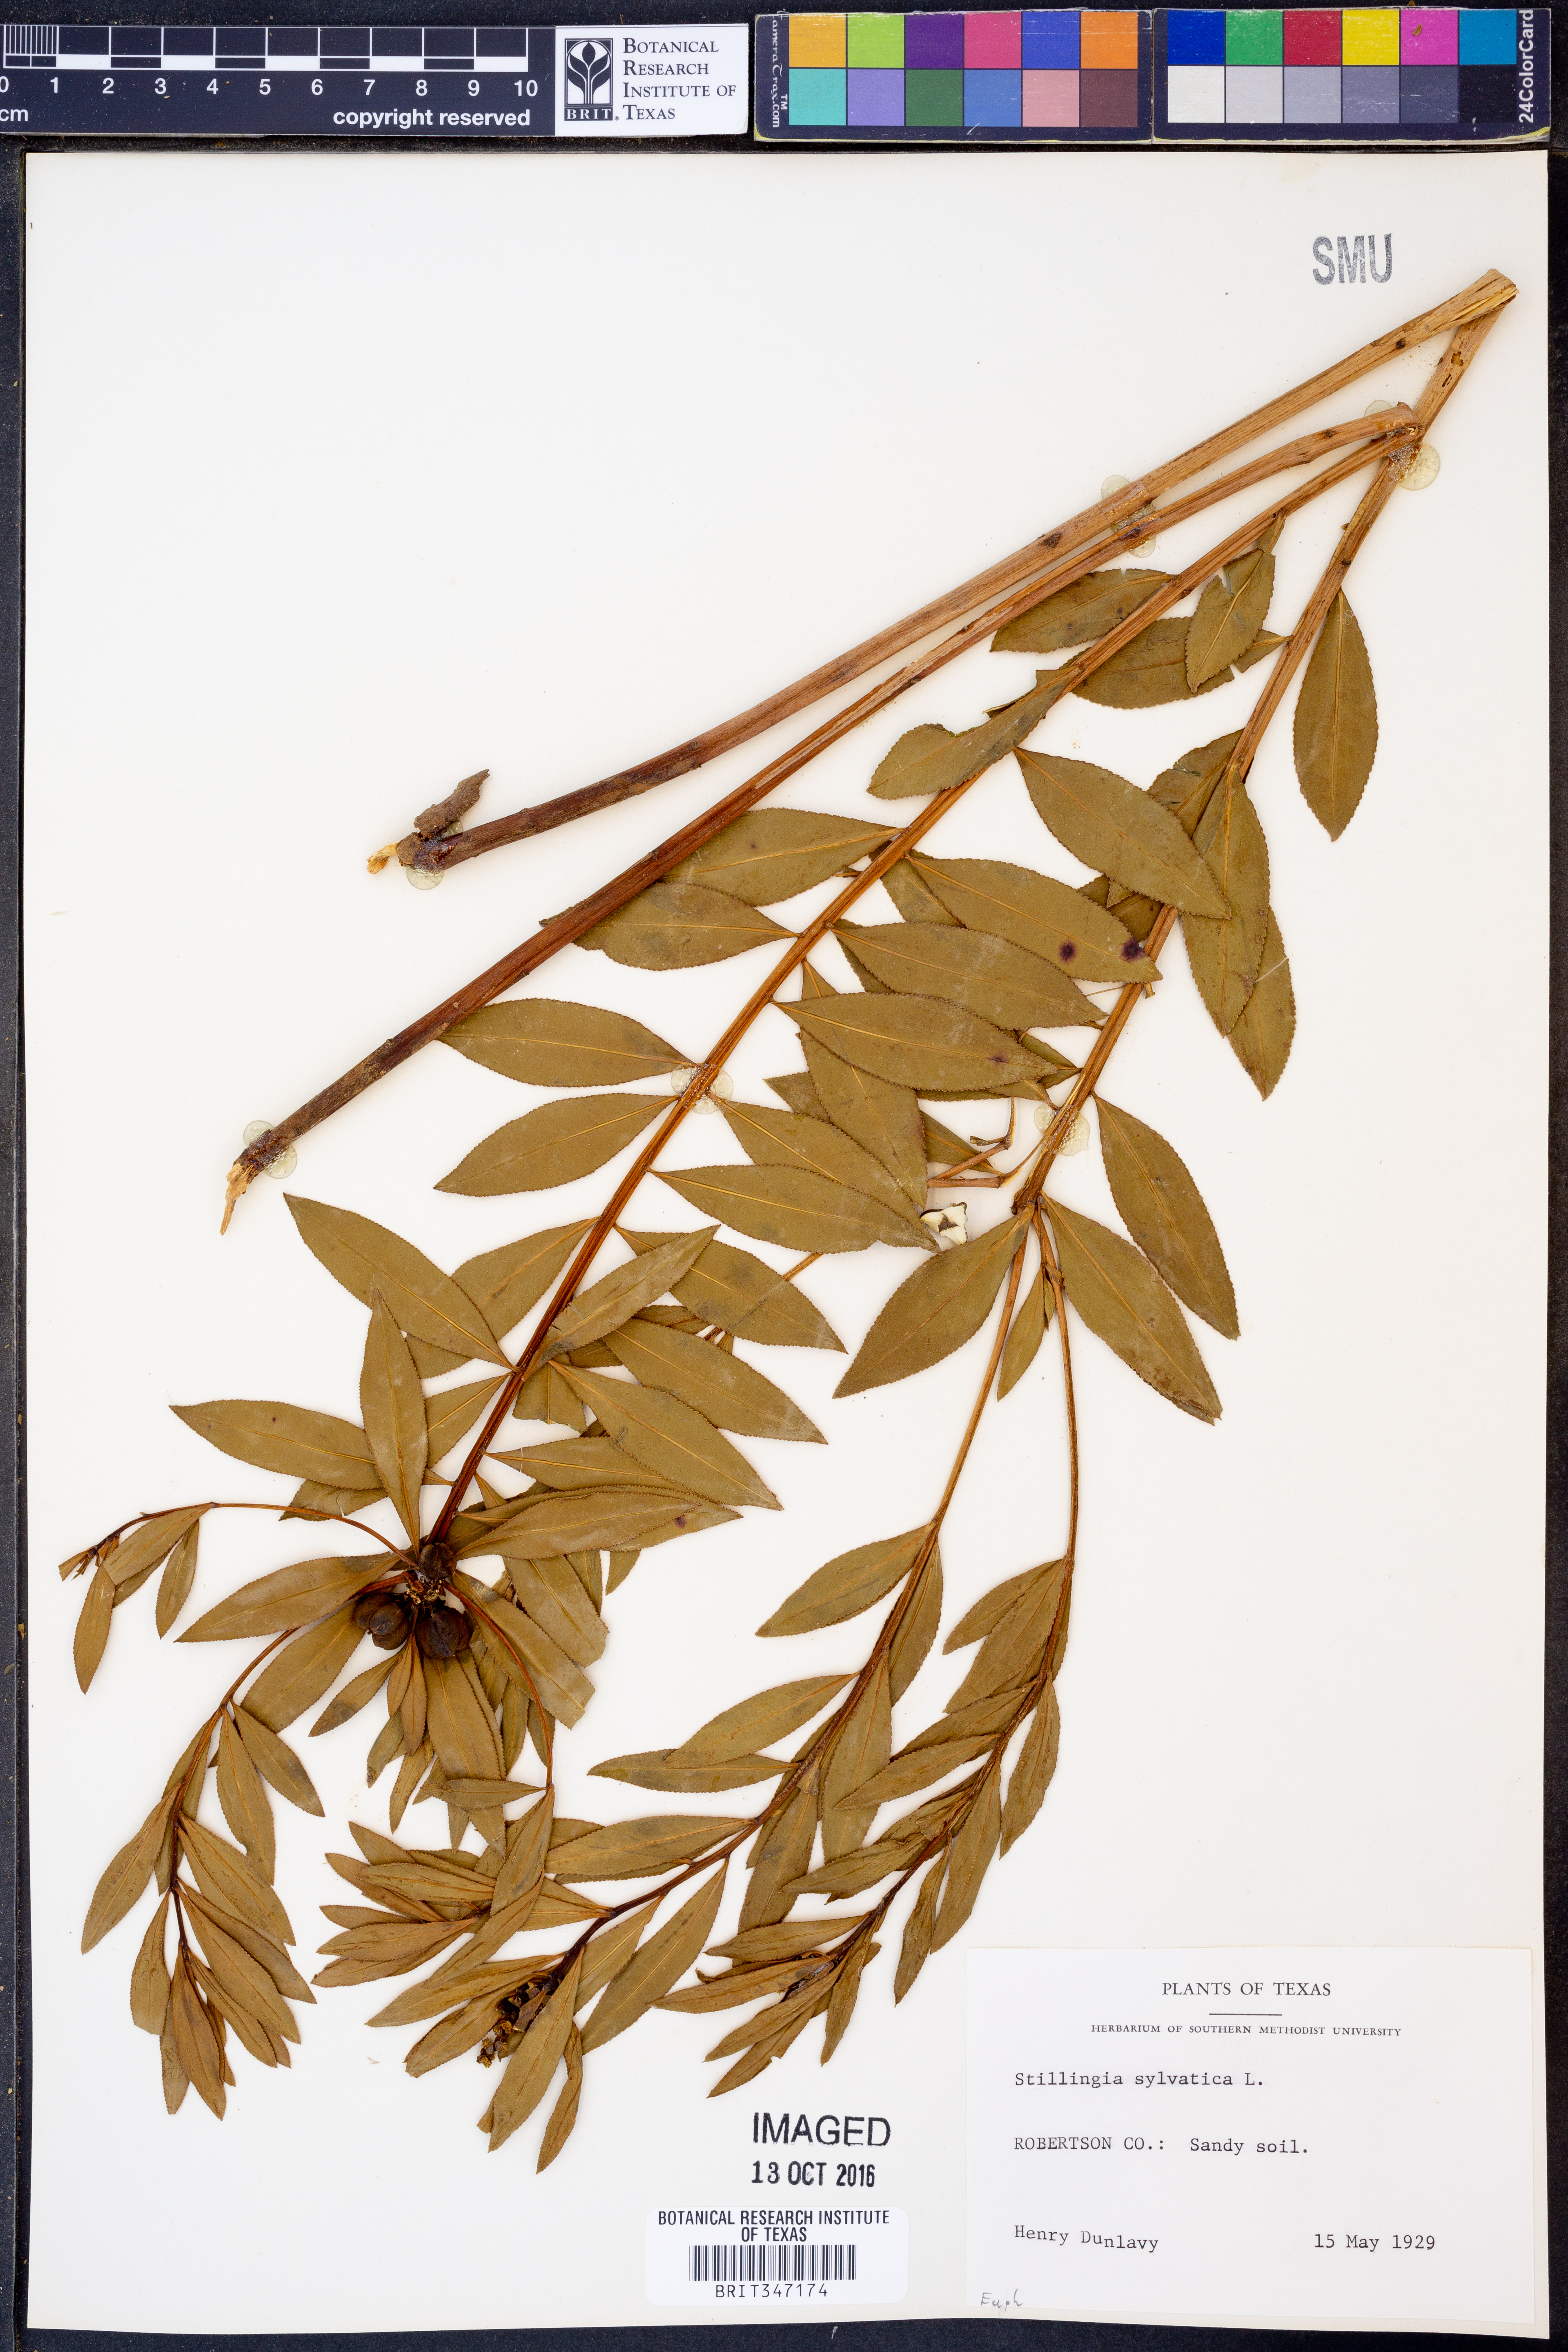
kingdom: Plantae
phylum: Tracheophyta
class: Magnoliopsida
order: Malpighiales
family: Euphorbiaceae
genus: Stillingia
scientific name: Stillingia sylvatica
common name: Queen's-delight
